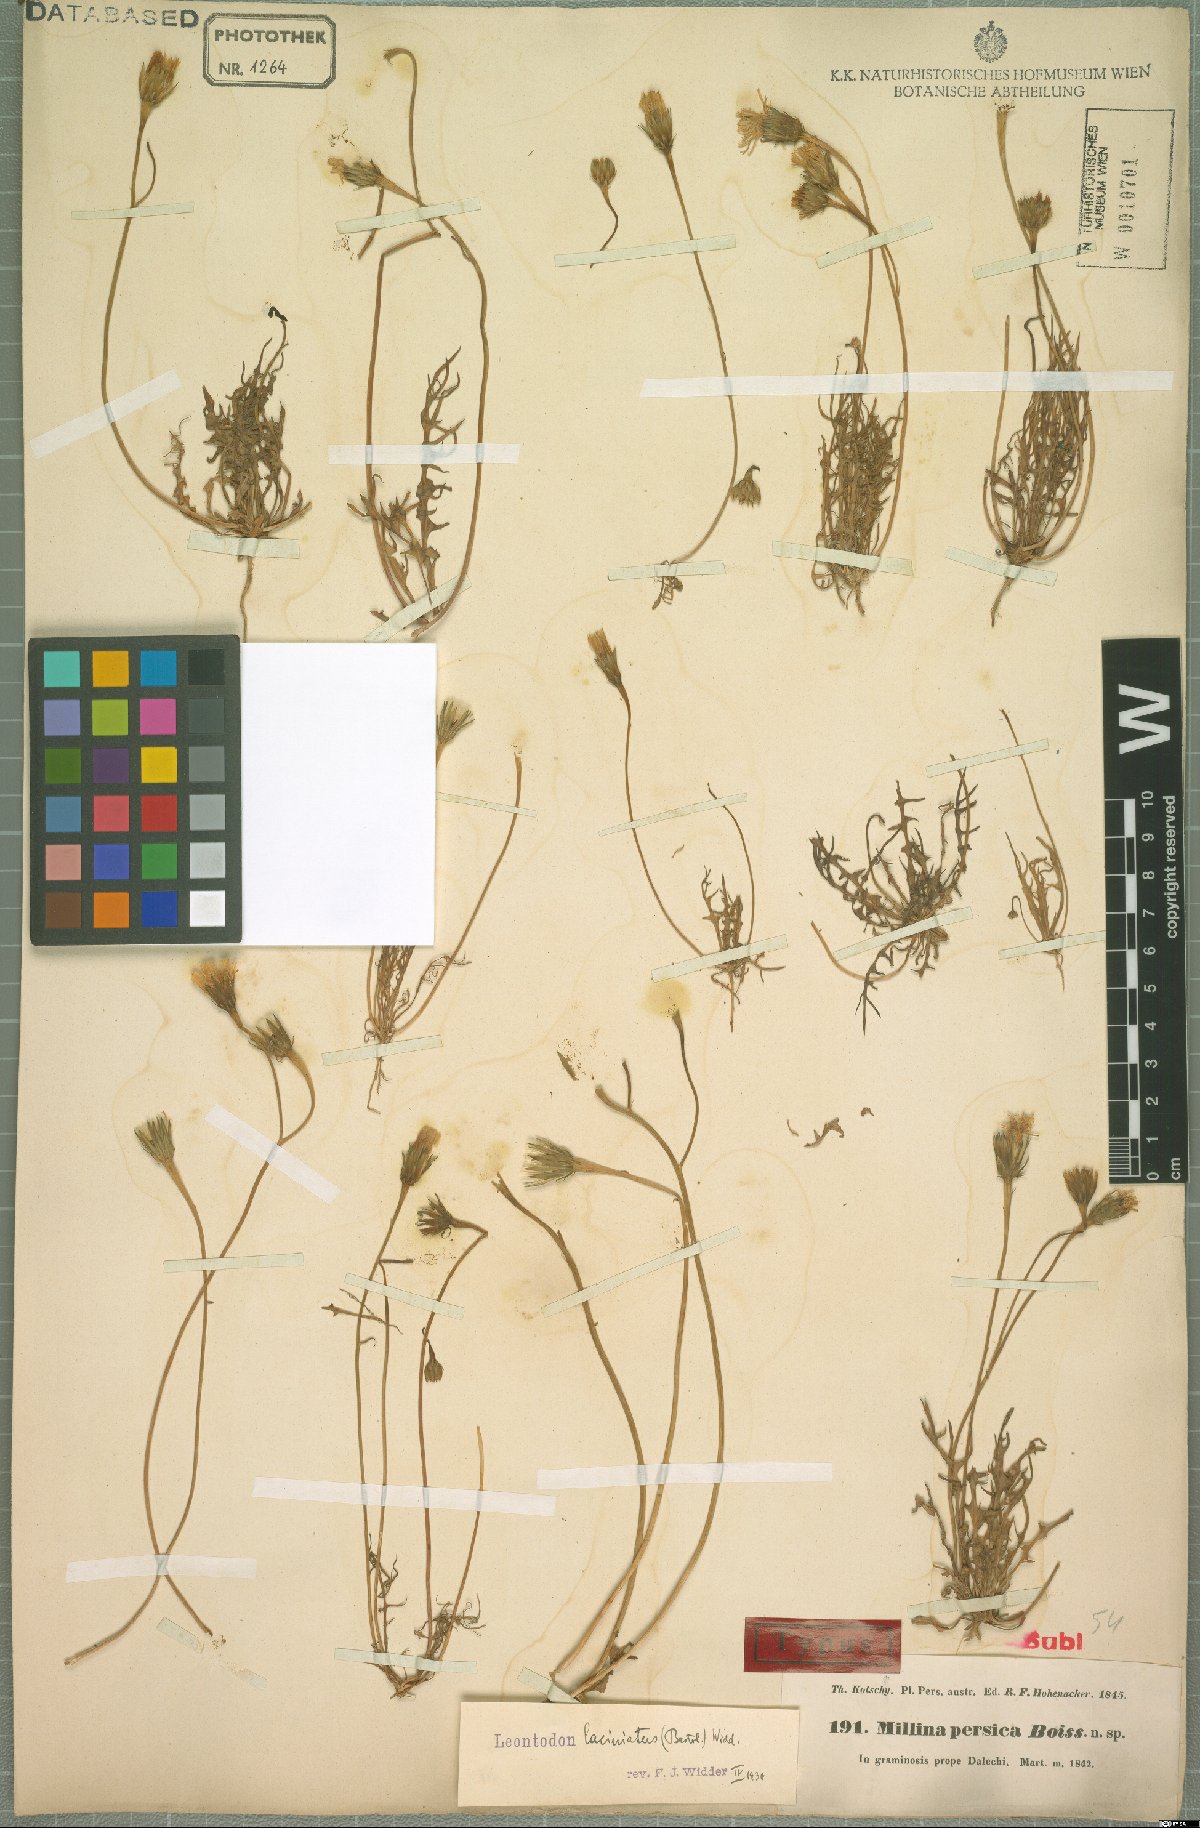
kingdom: Plantae
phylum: Tracheophyta
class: Magnoliopsida
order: Asterales
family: Asteraceae
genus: Leontodon
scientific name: Leontodon laciniatus
